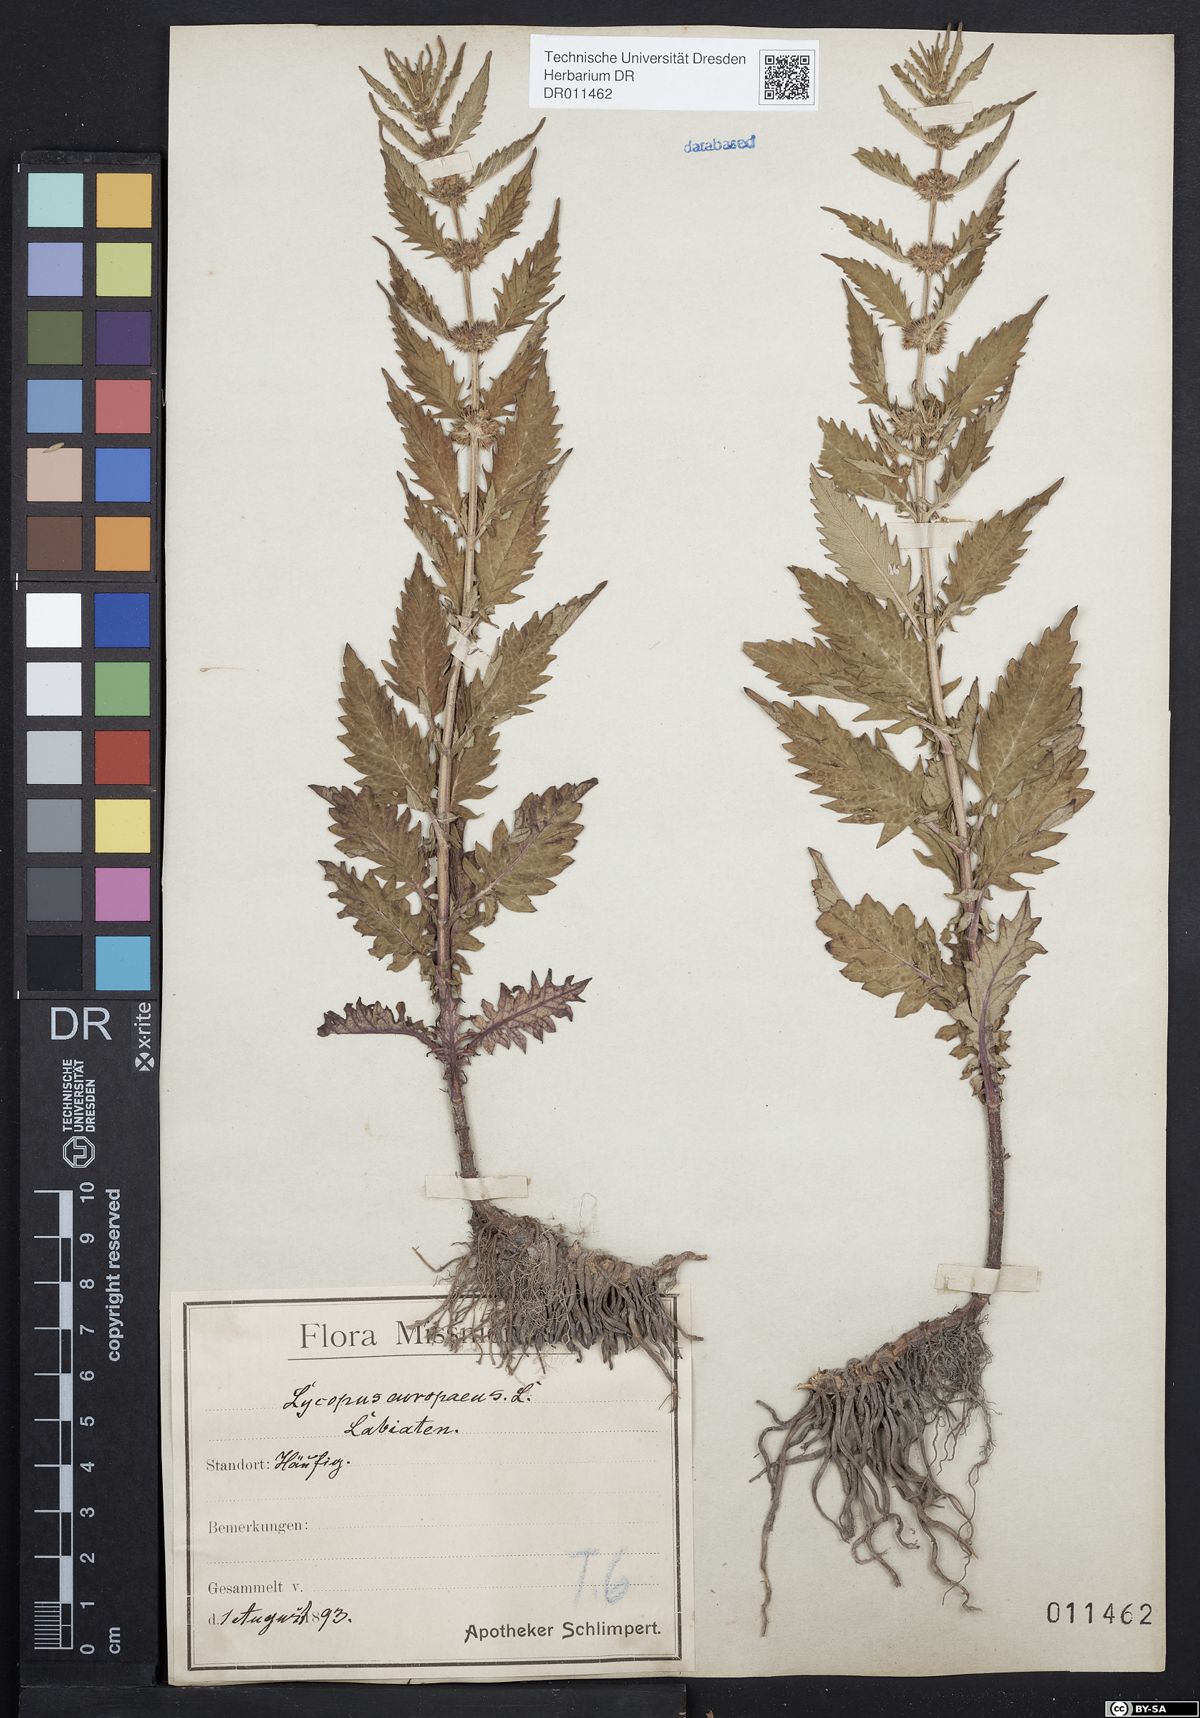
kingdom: Plantae
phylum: Tracheophyta
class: Magnoliopsida
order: Lamiales
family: Lamiaceae
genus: Lycopus
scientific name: Lycopus europaeus
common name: European bugleweed
